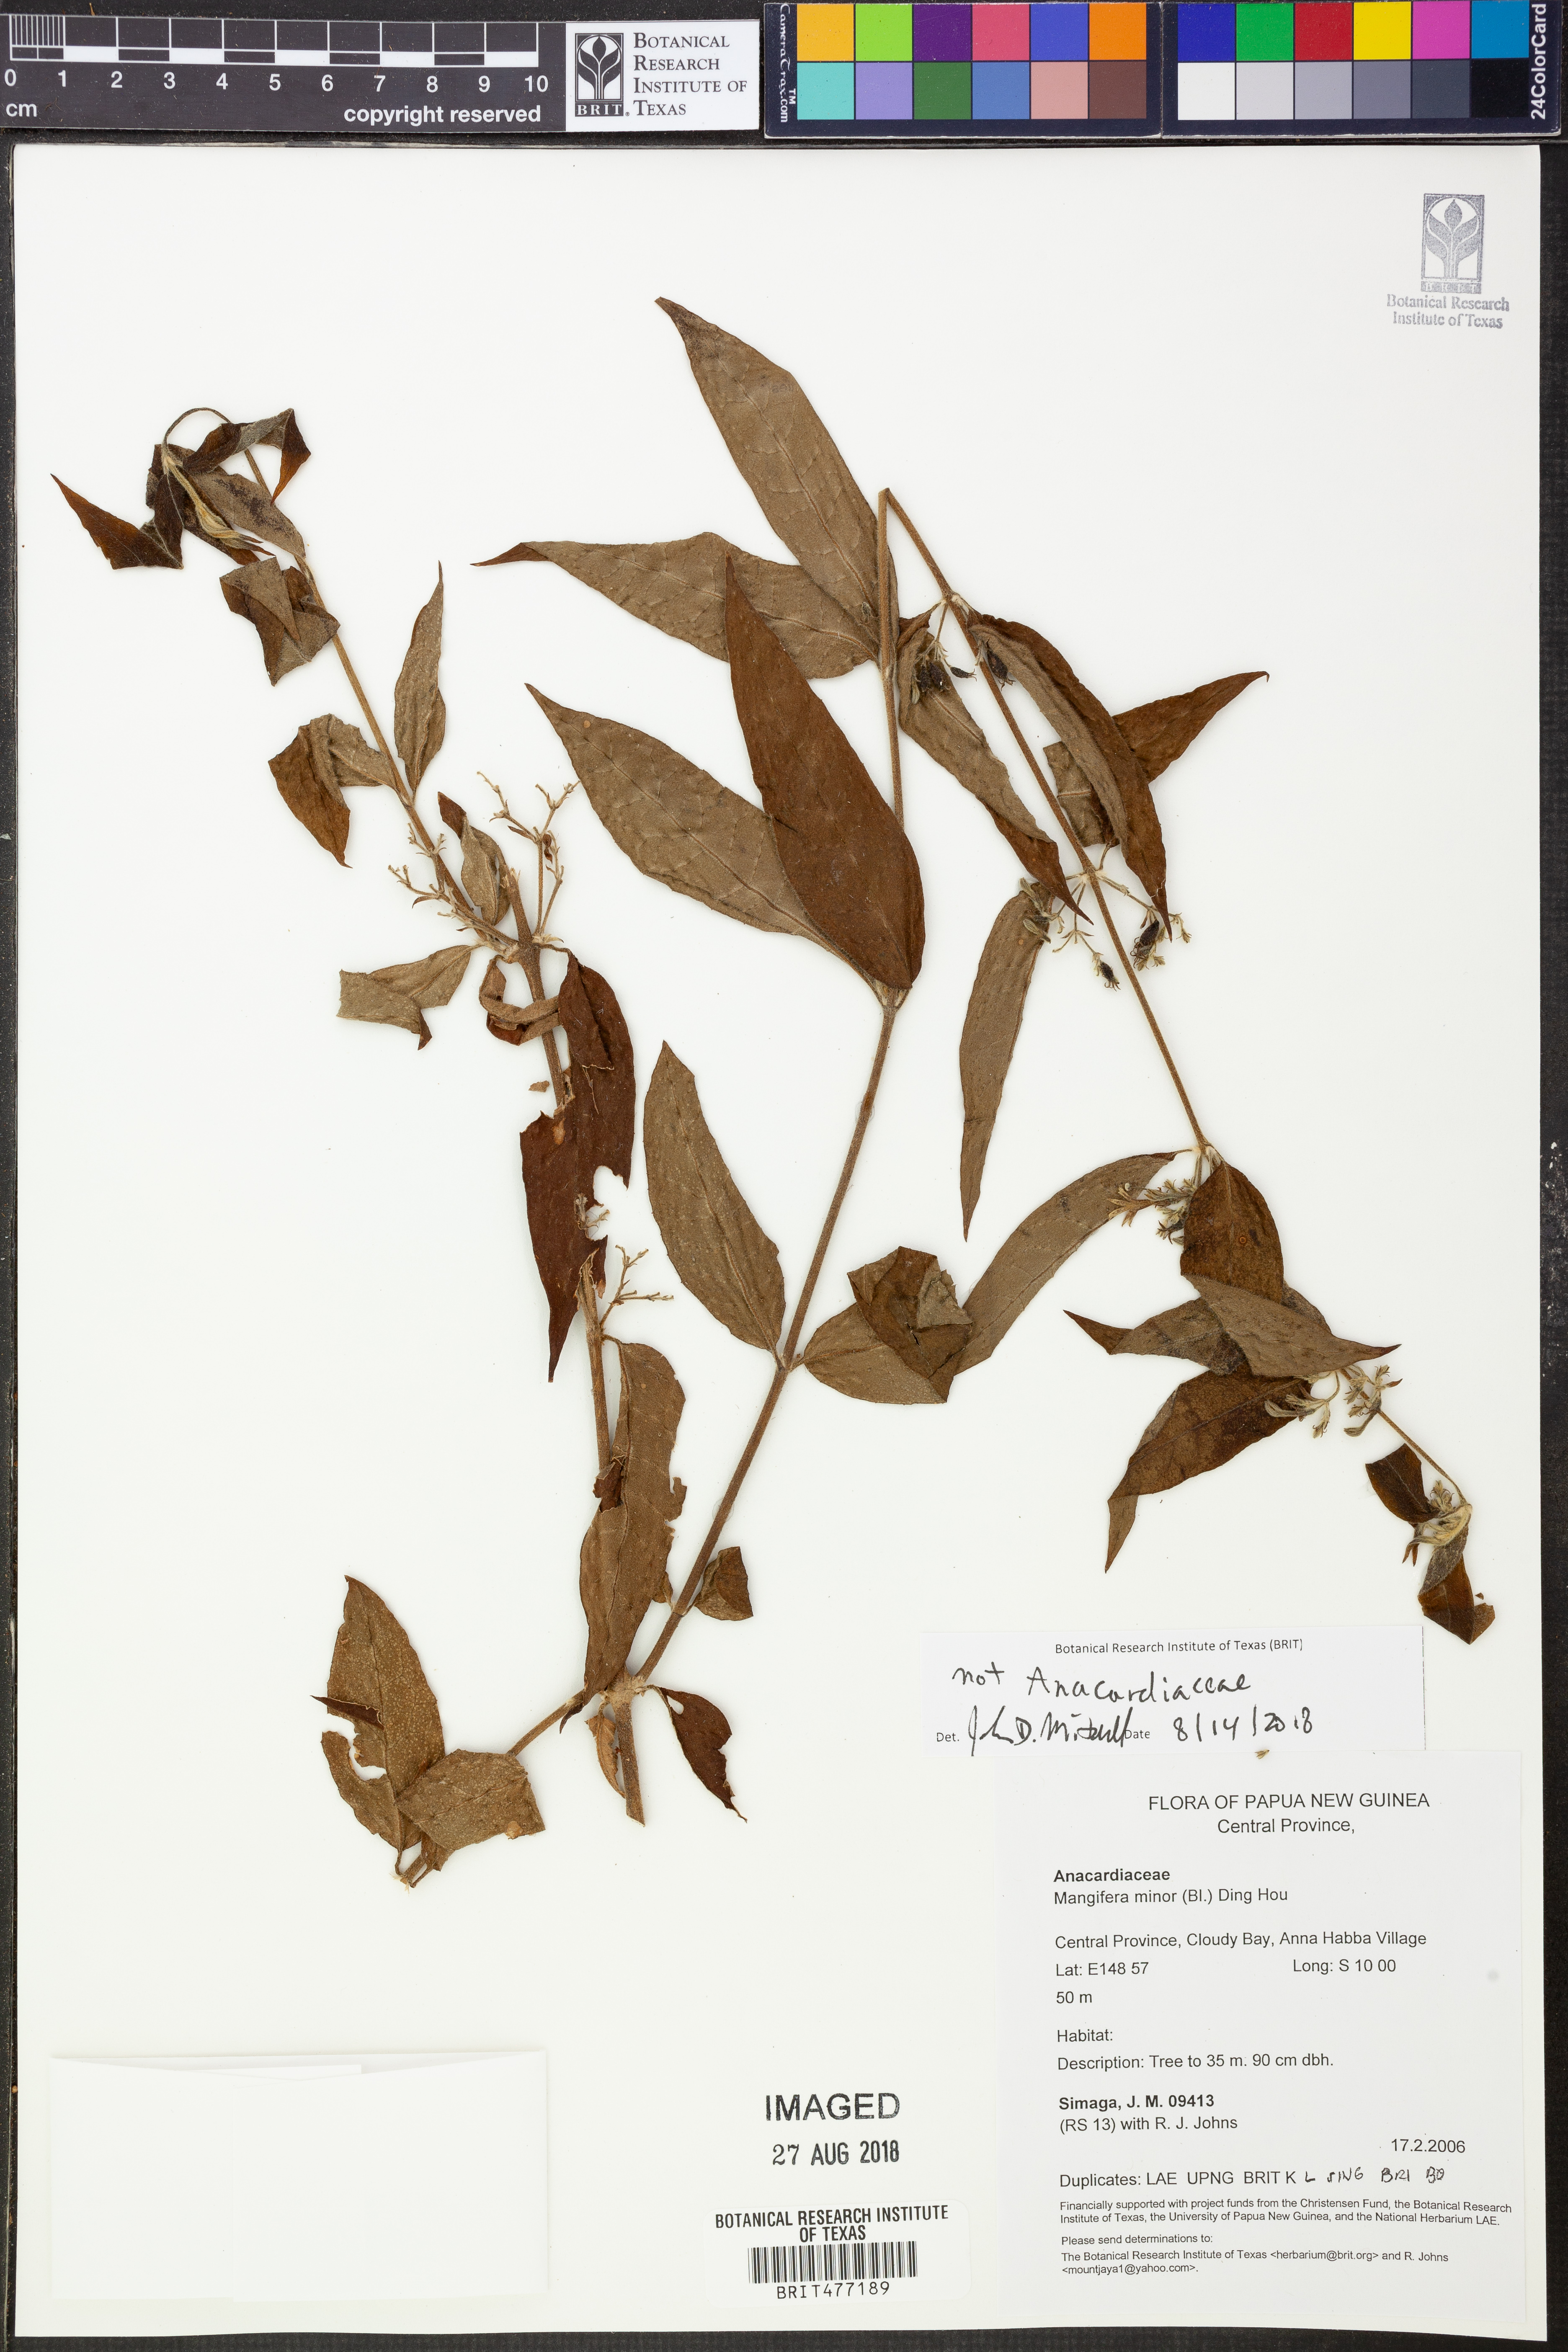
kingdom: Plantae
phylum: Tracheophyta
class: Magnoliopsida
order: Asterales
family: Goodeniaceae
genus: Scaevola
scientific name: Scaevola
